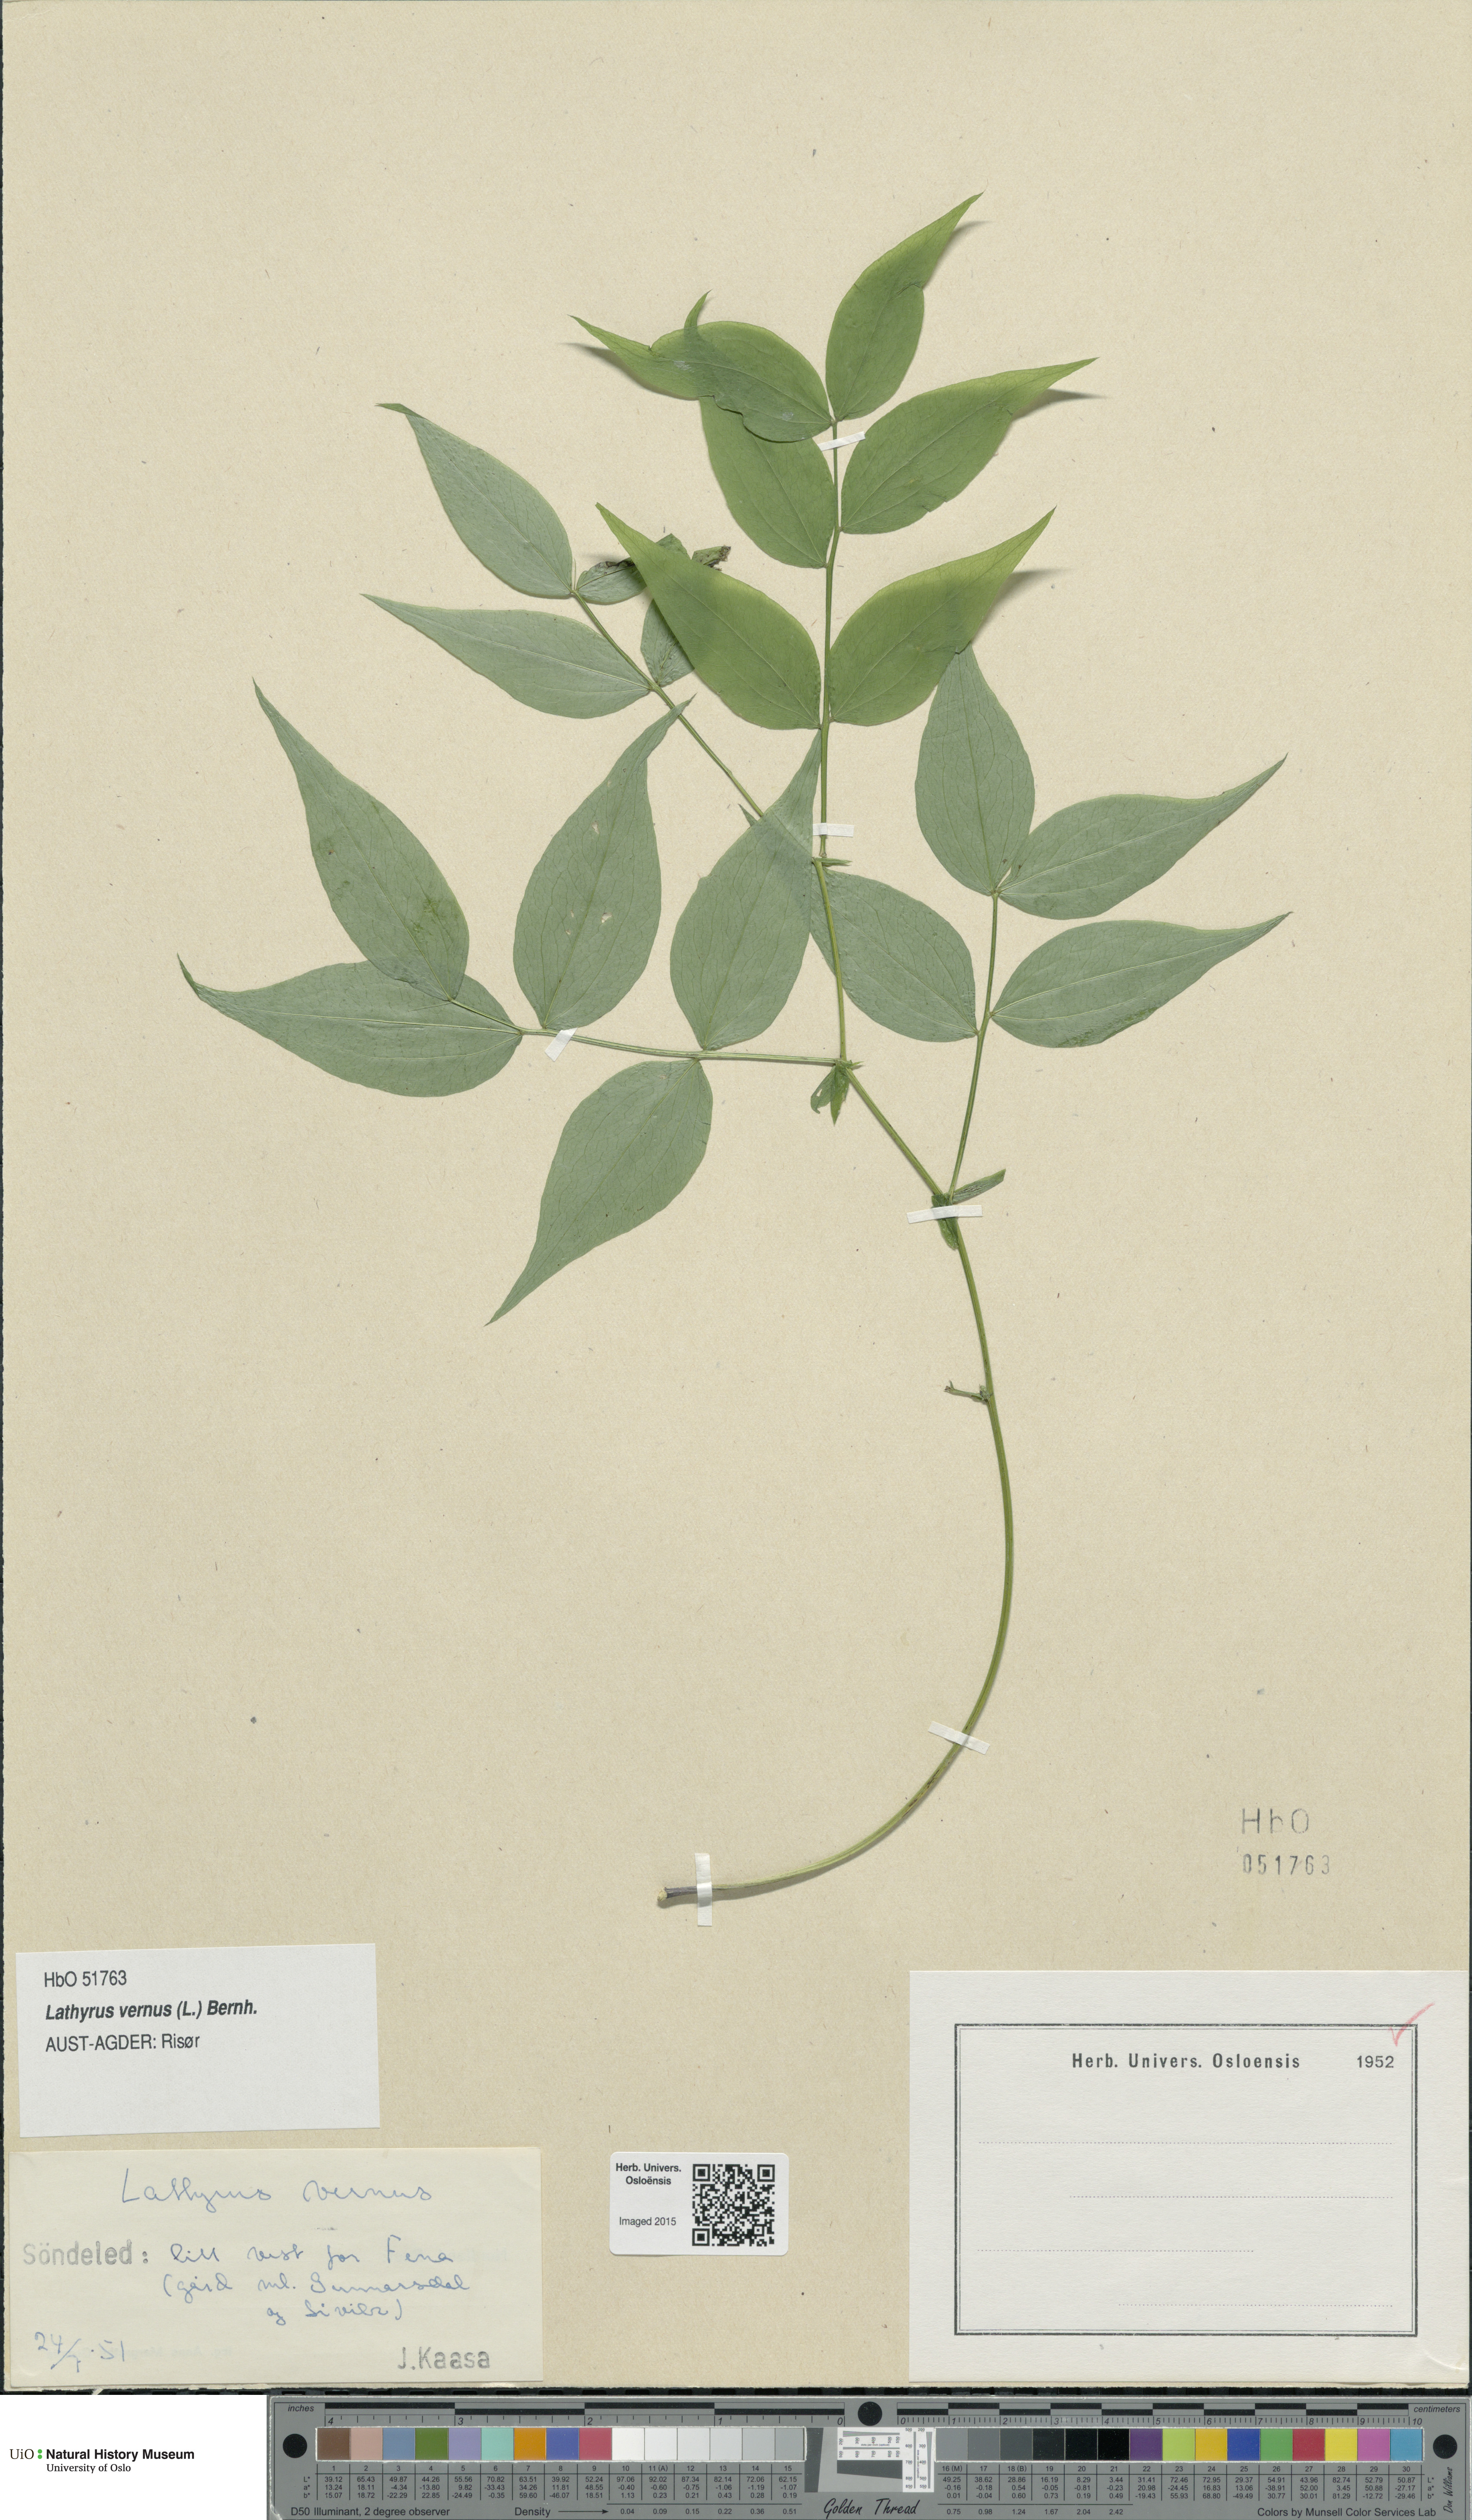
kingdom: Plantae
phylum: Tracheophyta
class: Magnoliopsida
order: Fabales
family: Fabaceae
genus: Lathyrus
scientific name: Lathyrus vernus
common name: Spring pea
